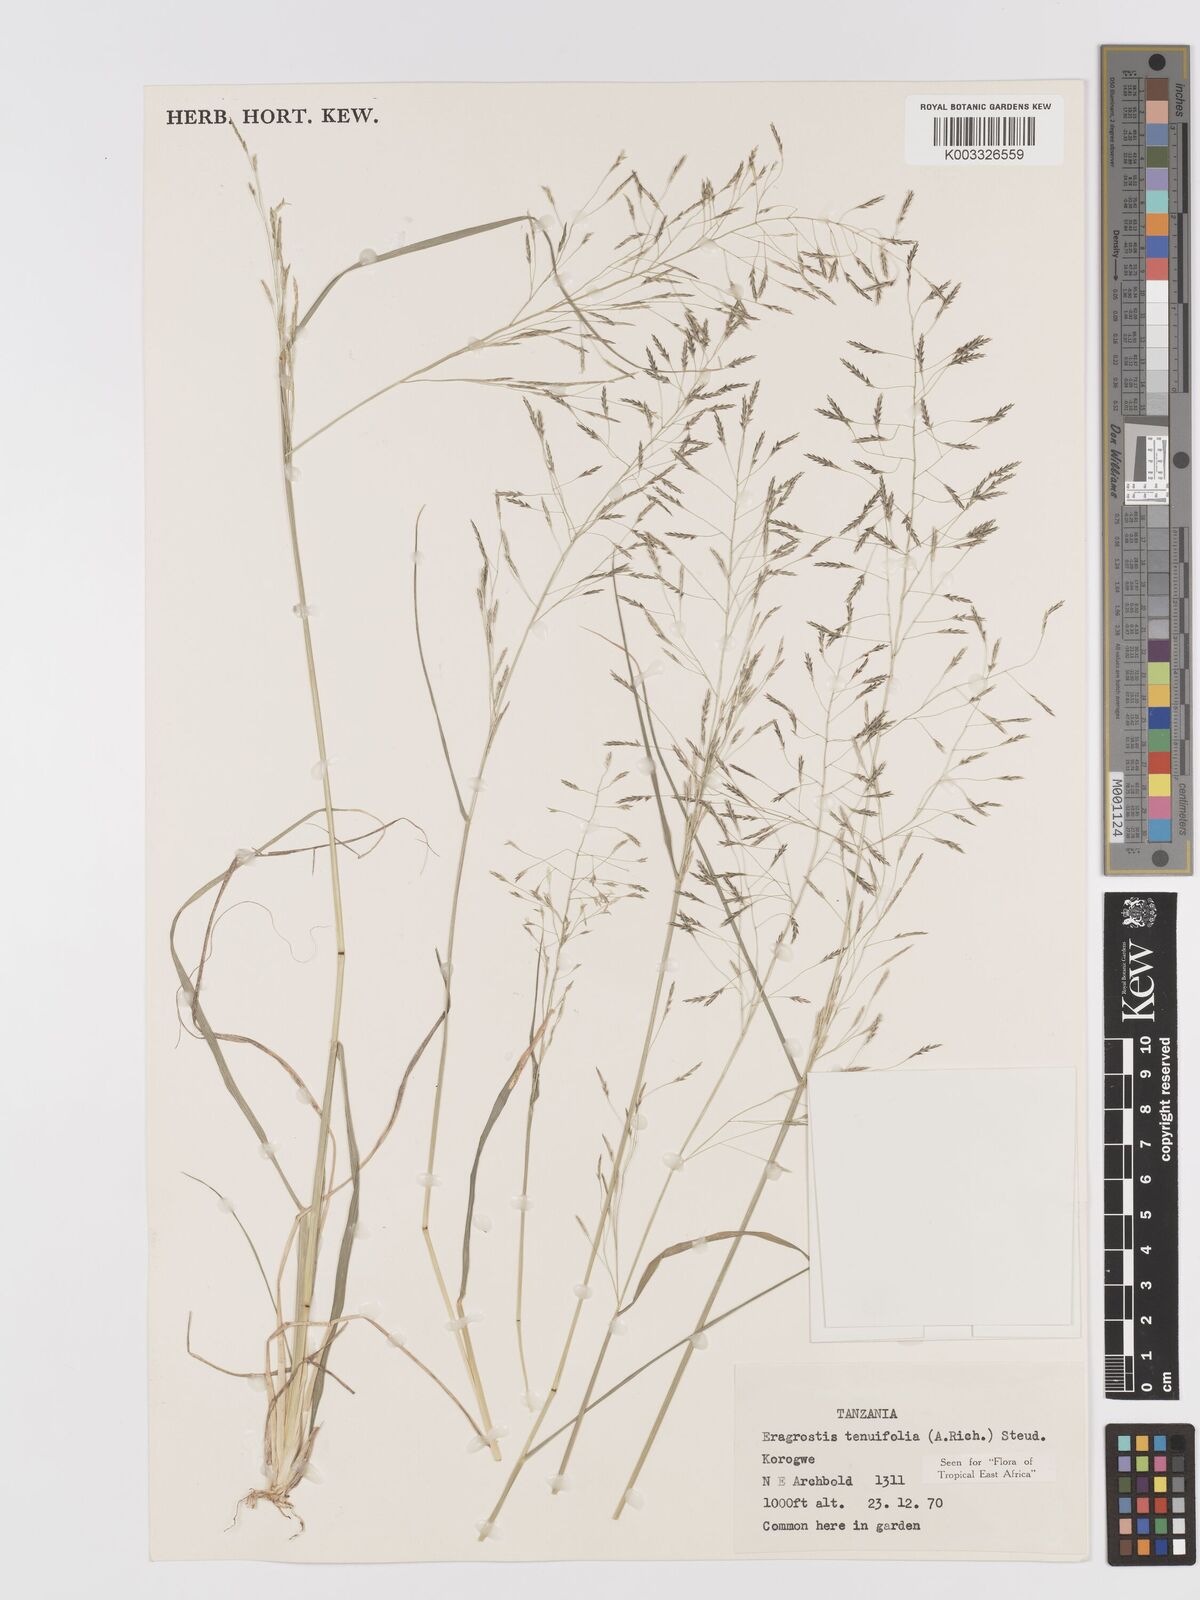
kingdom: Plantae
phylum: Tracheophyta
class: Liliopsida
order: Poales
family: Poaceae
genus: Eragrostis
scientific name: Eragrostis tenuifolia
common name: Elastic grass
